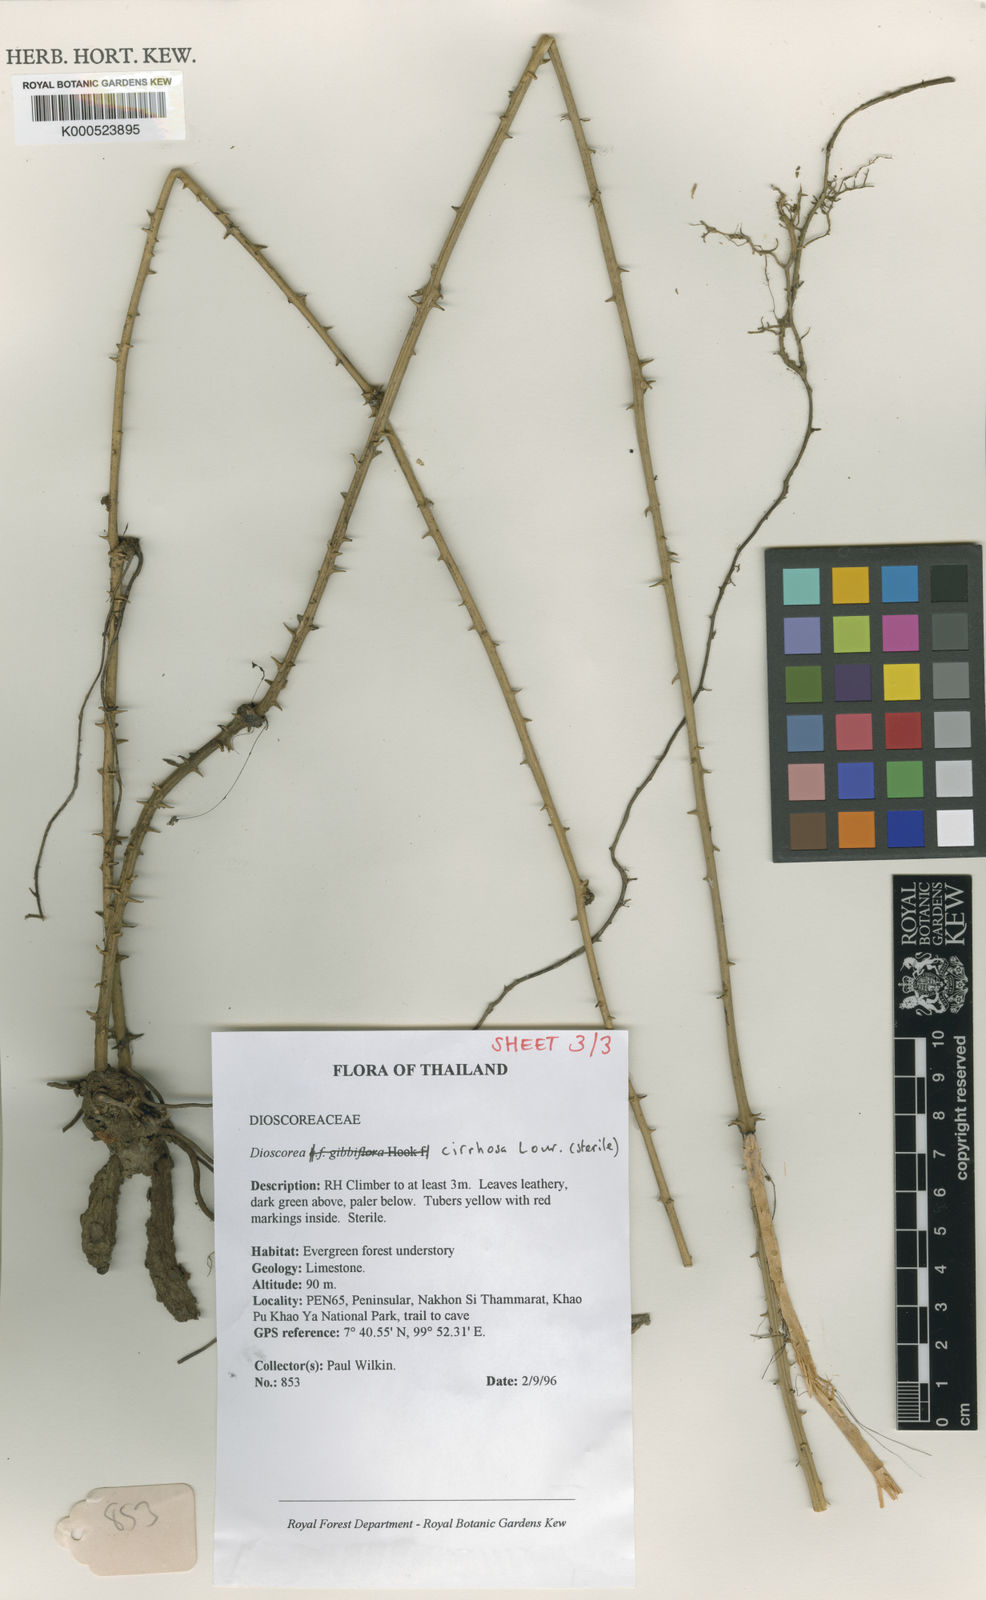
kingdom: Plantae
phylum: Tracheophyta
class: Liliopsida
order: Dioscoreales
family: Dioscoreaceae
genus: Dioscorea
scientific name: Dioscorea cirrhosa
